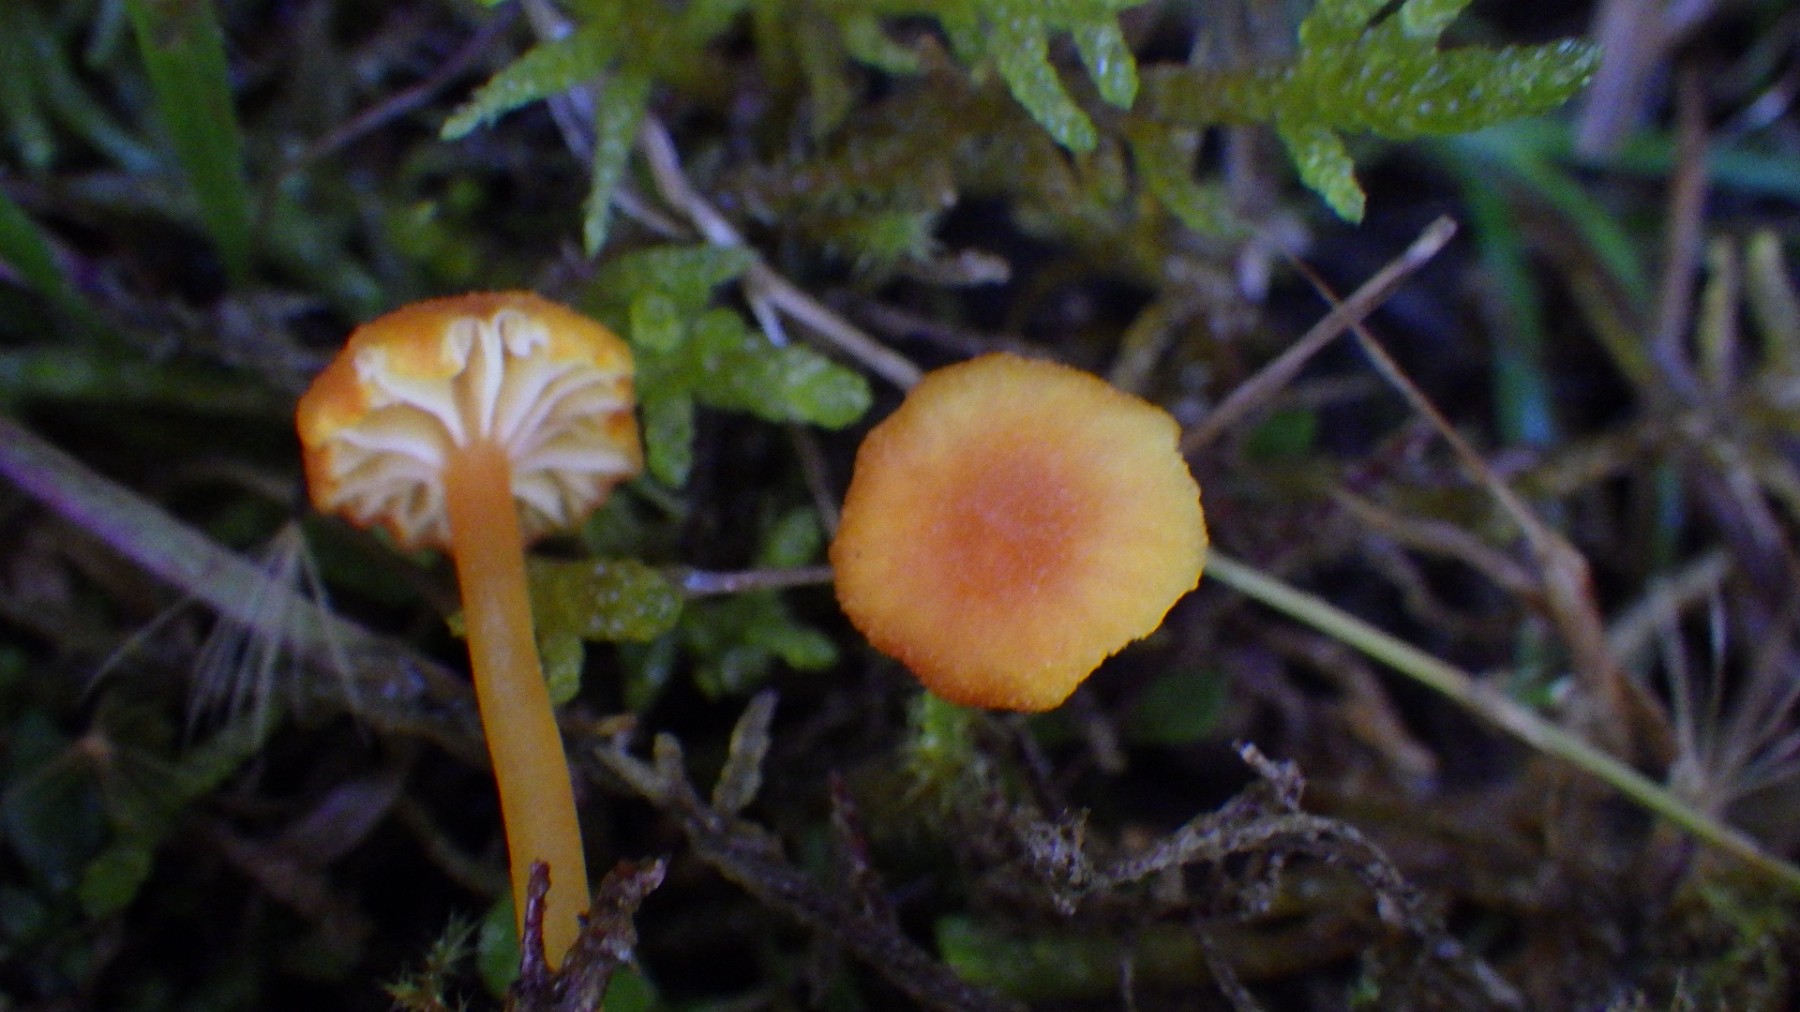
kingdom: Fungi
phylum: Basidiomycota
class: Agaricomycetes
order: Hymenochaetales
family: Rickenellaceae
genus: Rickenella
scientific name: Rickenella fibula
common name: orange mosnavlehat
